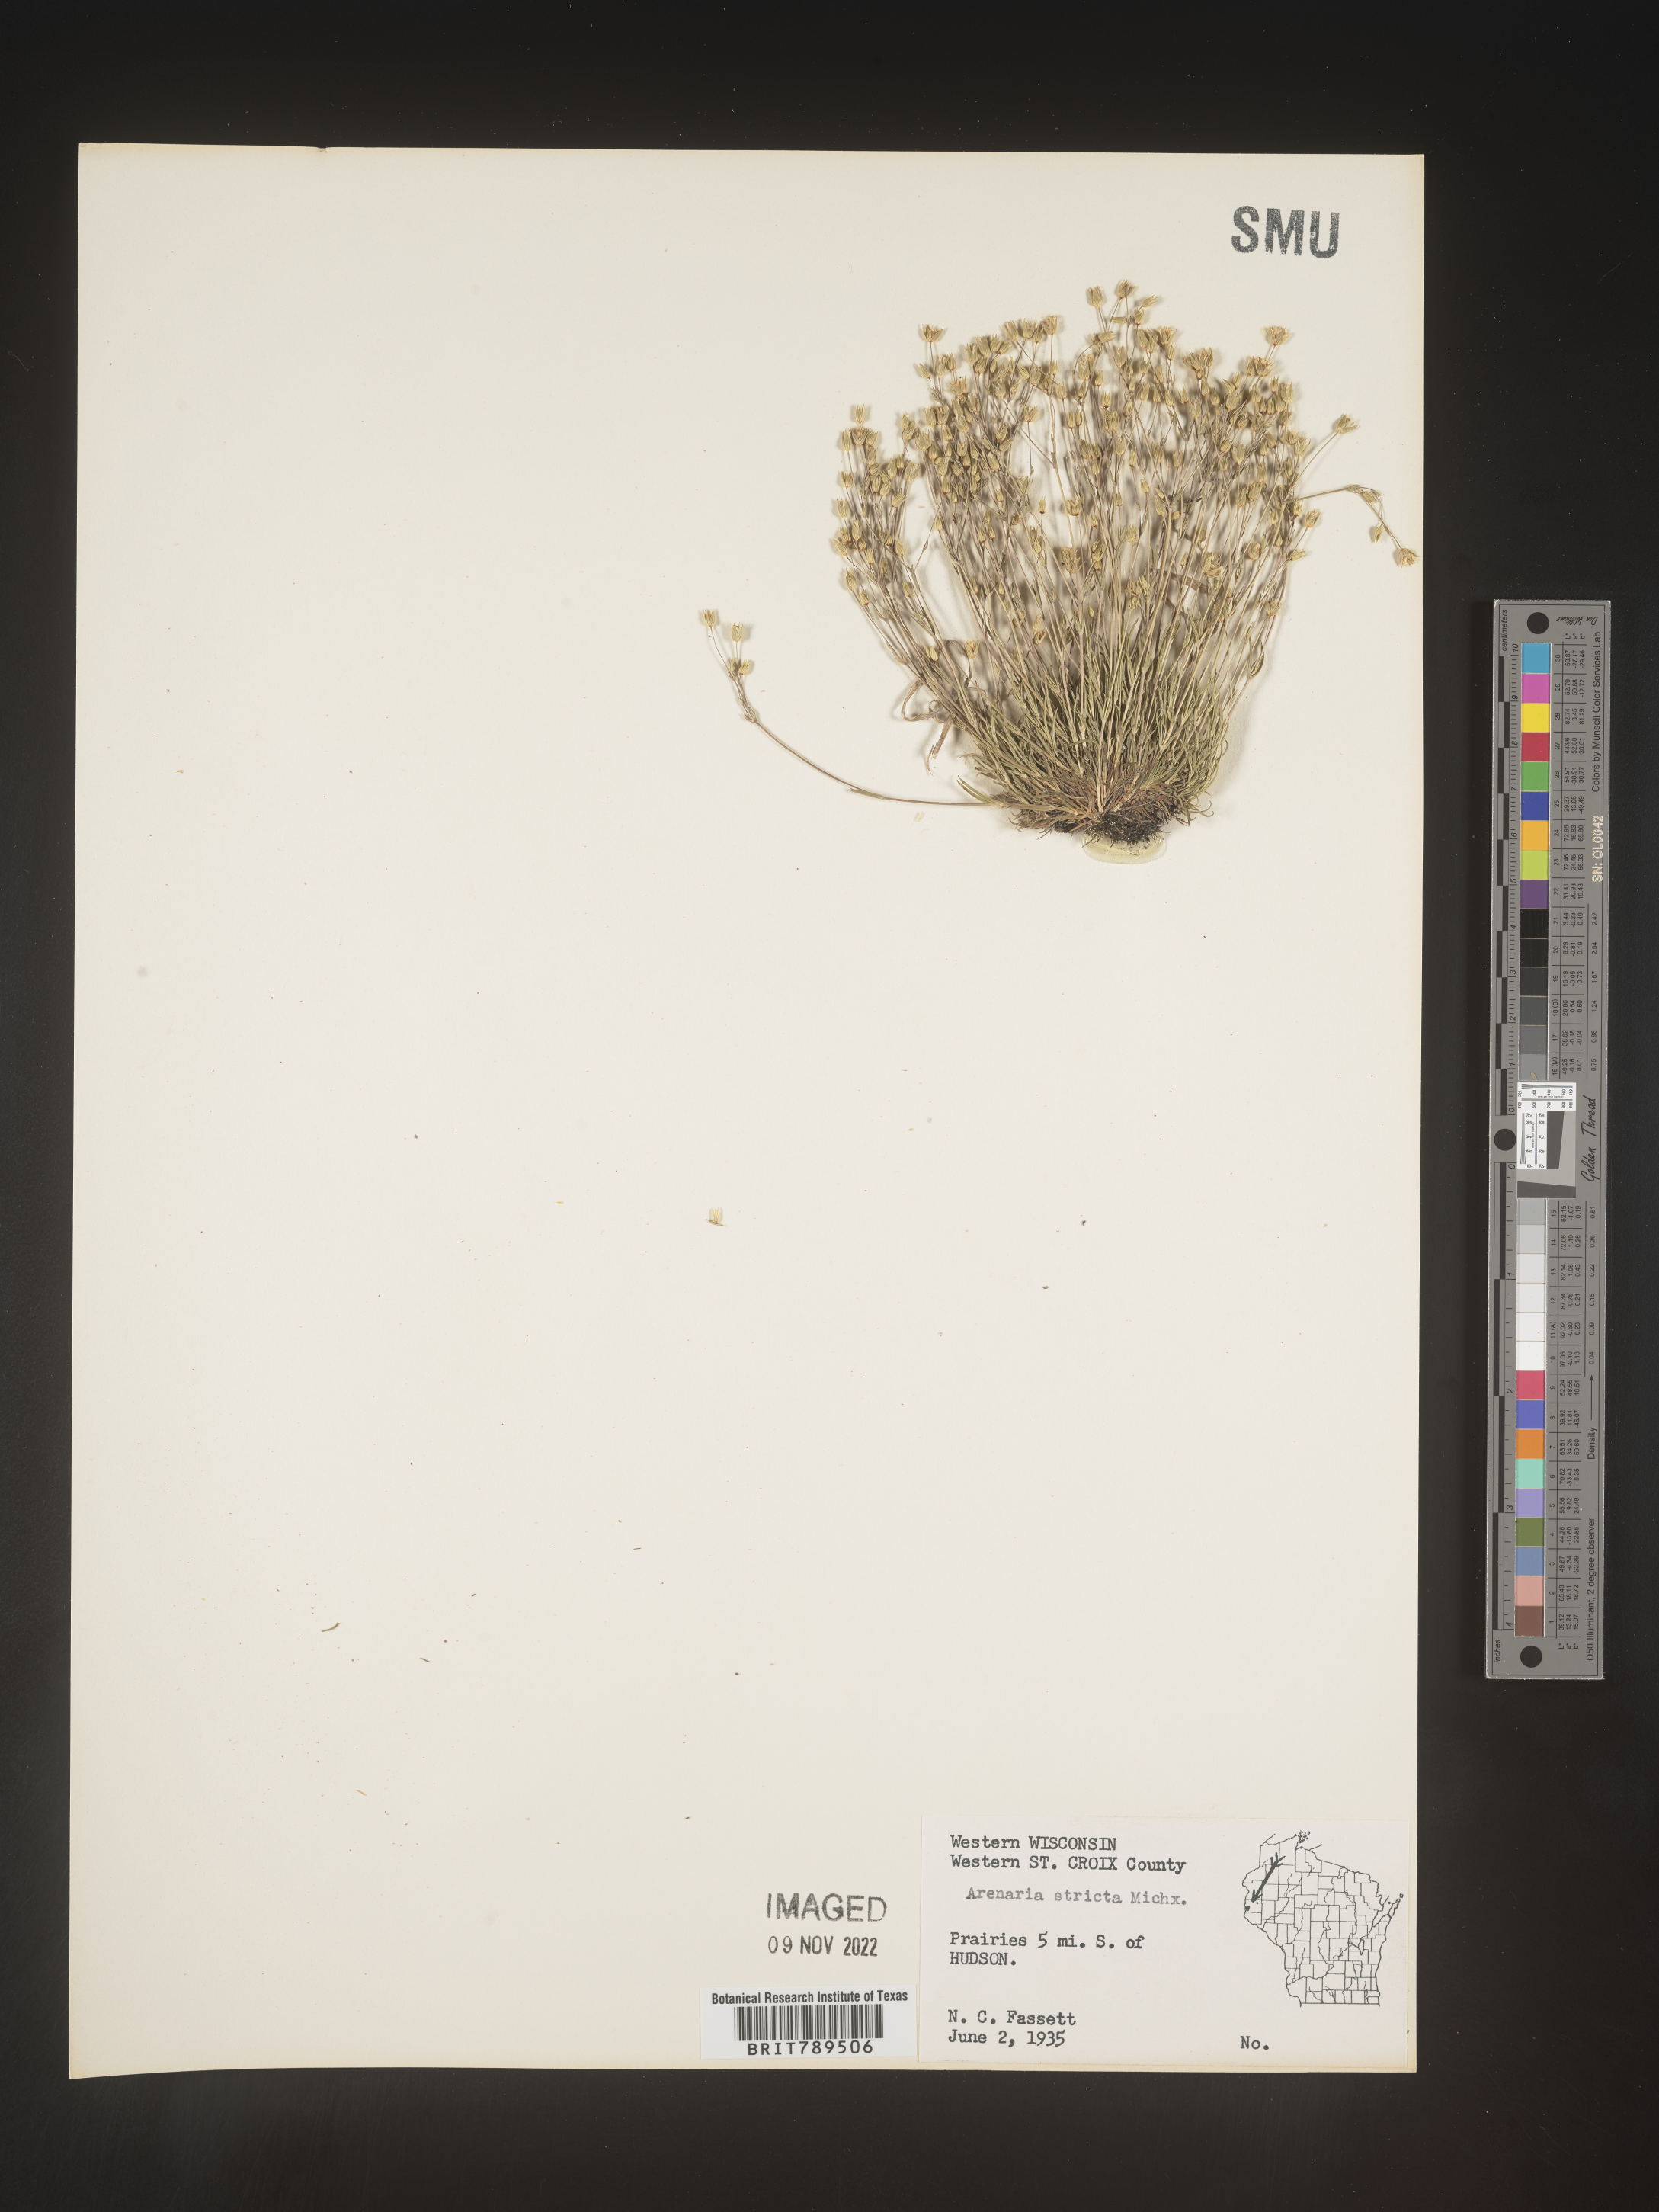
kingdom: Plantae
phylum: Tracheophyta
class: Magnoliopsida
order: Caryophyllales
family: Caryophyllaceae
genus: Sabulina
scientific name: Sabulina michauxii
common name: Michaux's stitchwort
